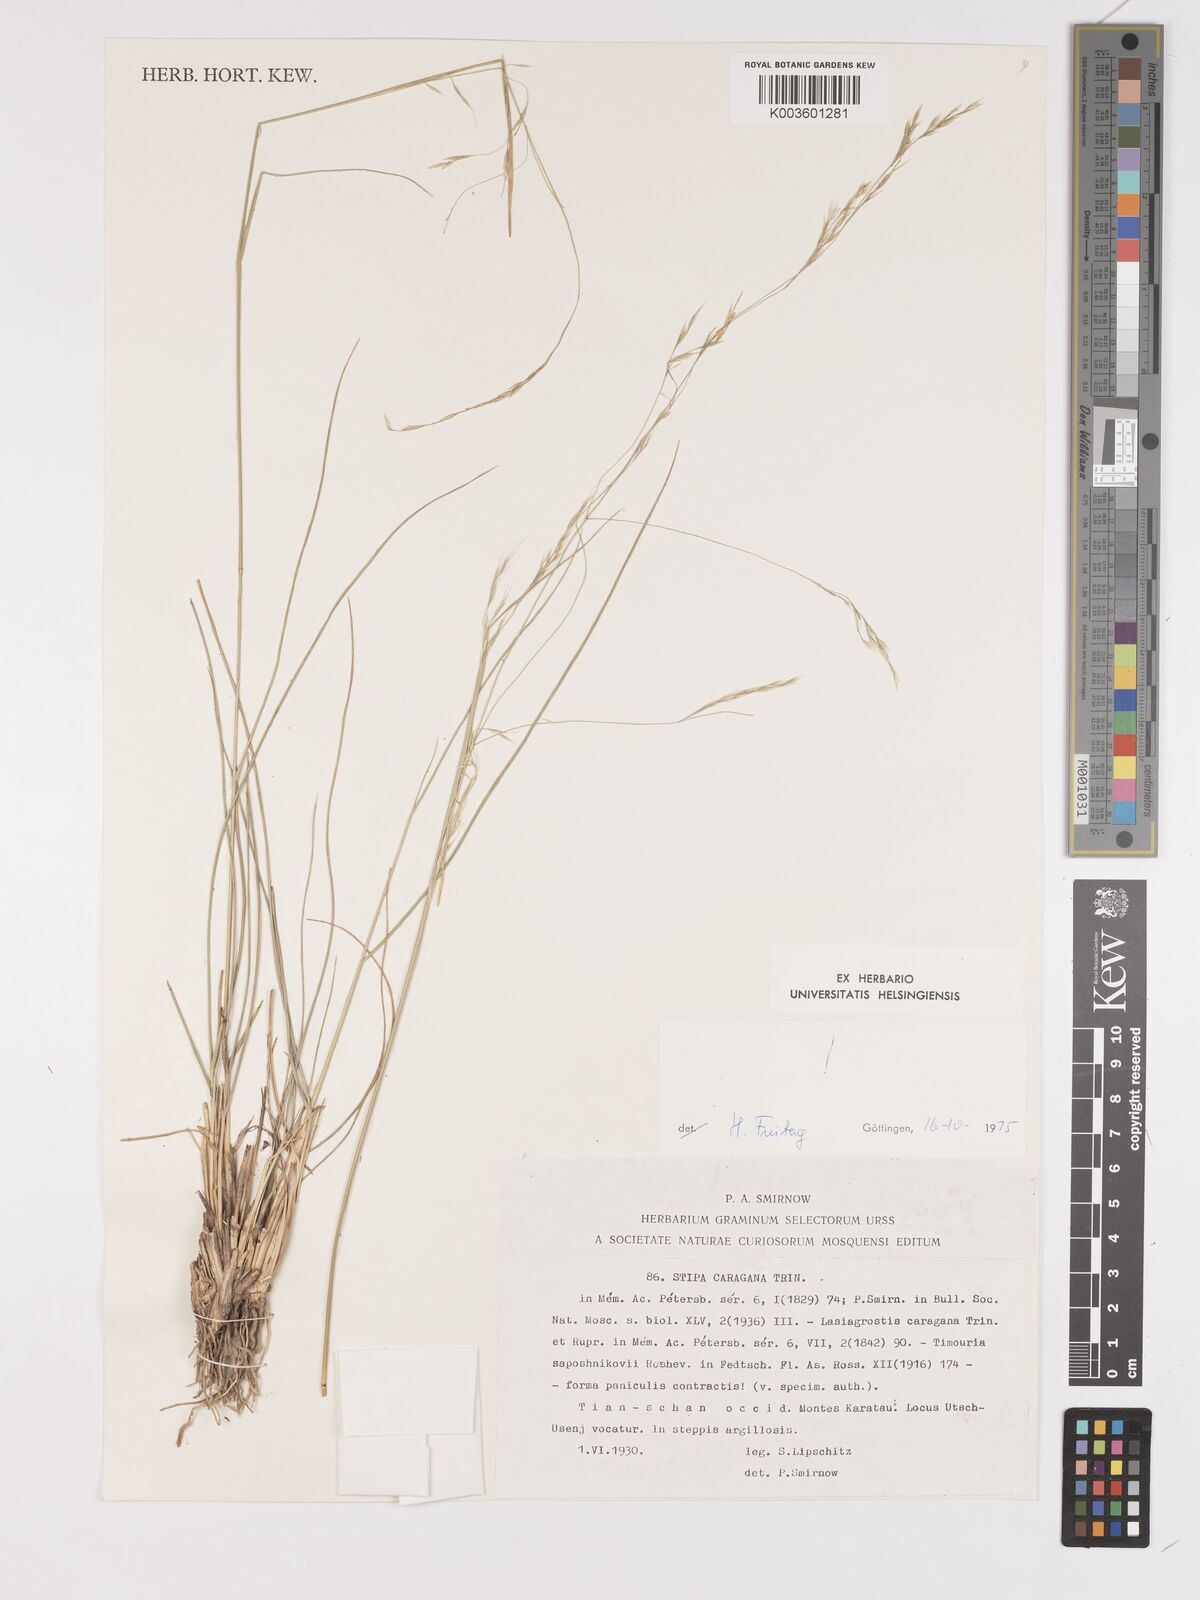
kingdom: Plantae
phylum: Tracheophyta
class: Liliopsida
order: Poales
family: Poaceae
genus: Stipa
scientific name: Stipa conferta
